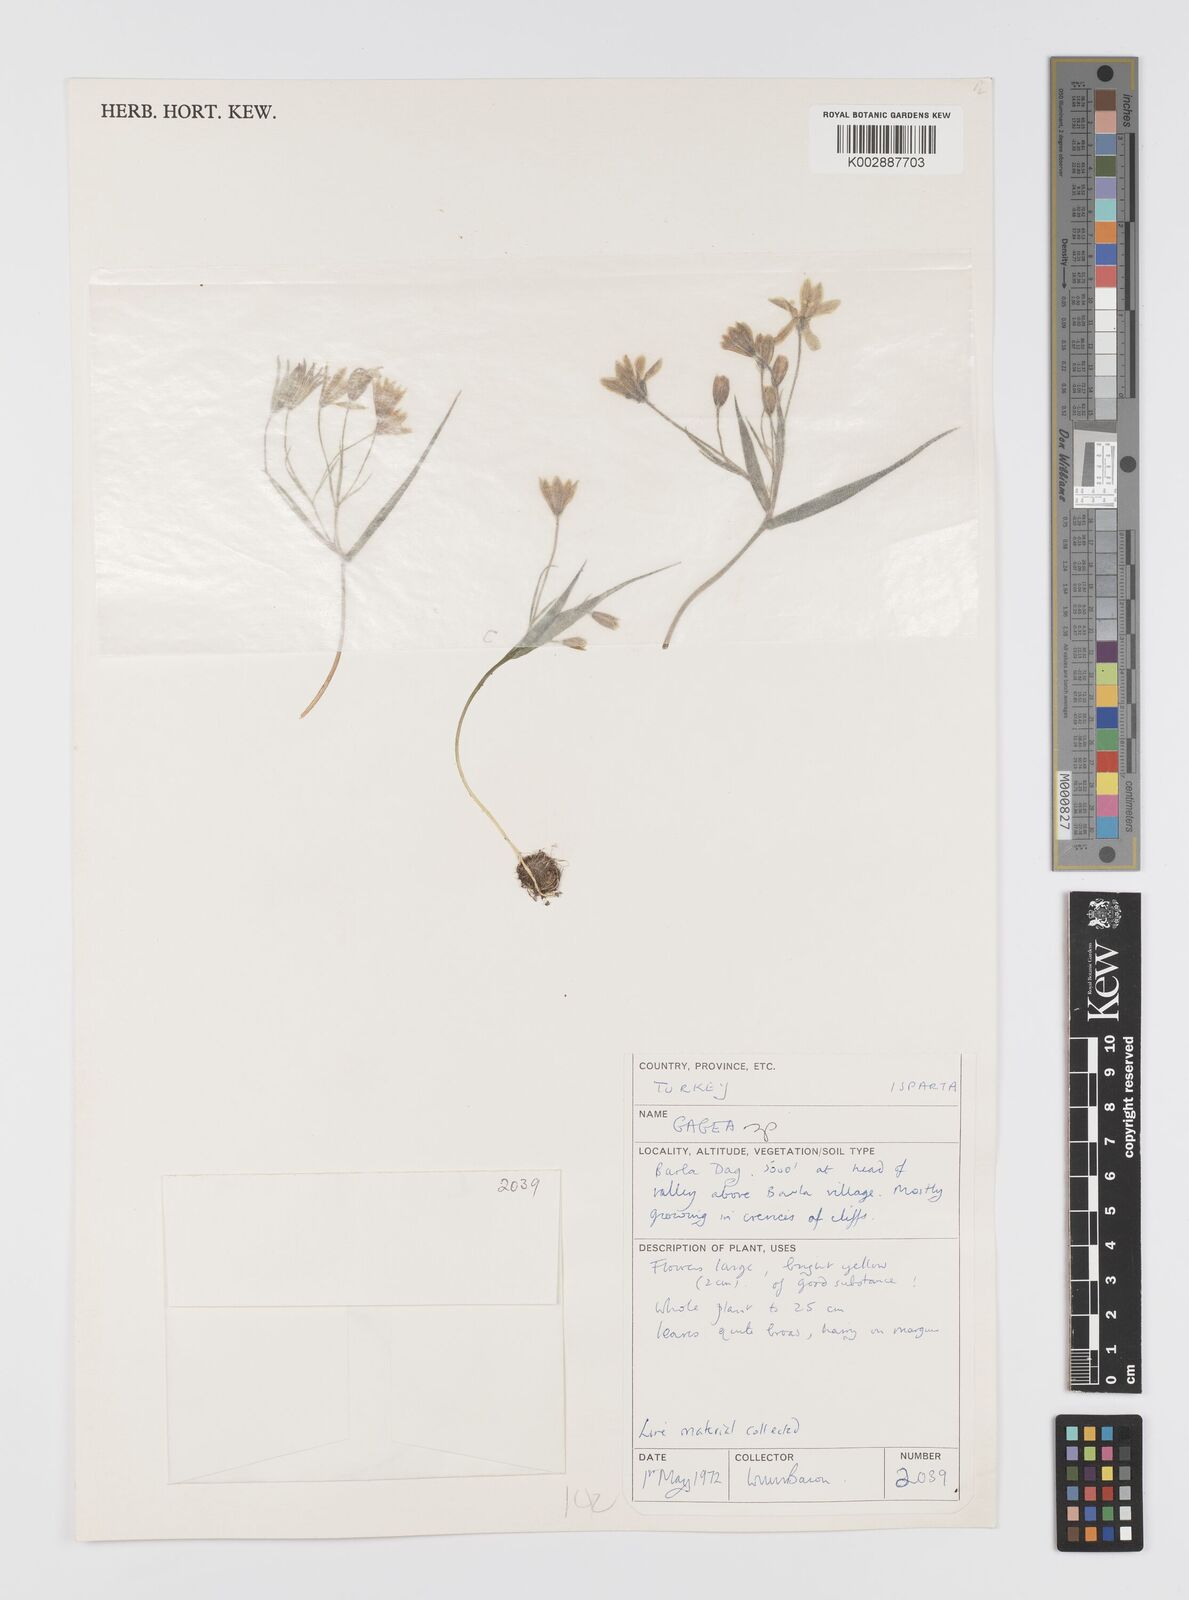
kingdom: Plantae
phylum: Tracheophyta
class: Liliopsida
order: Liliales
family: Liliaceae
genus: Gagea
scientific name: Gagea granatellii
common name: Granatelli’s gagea
